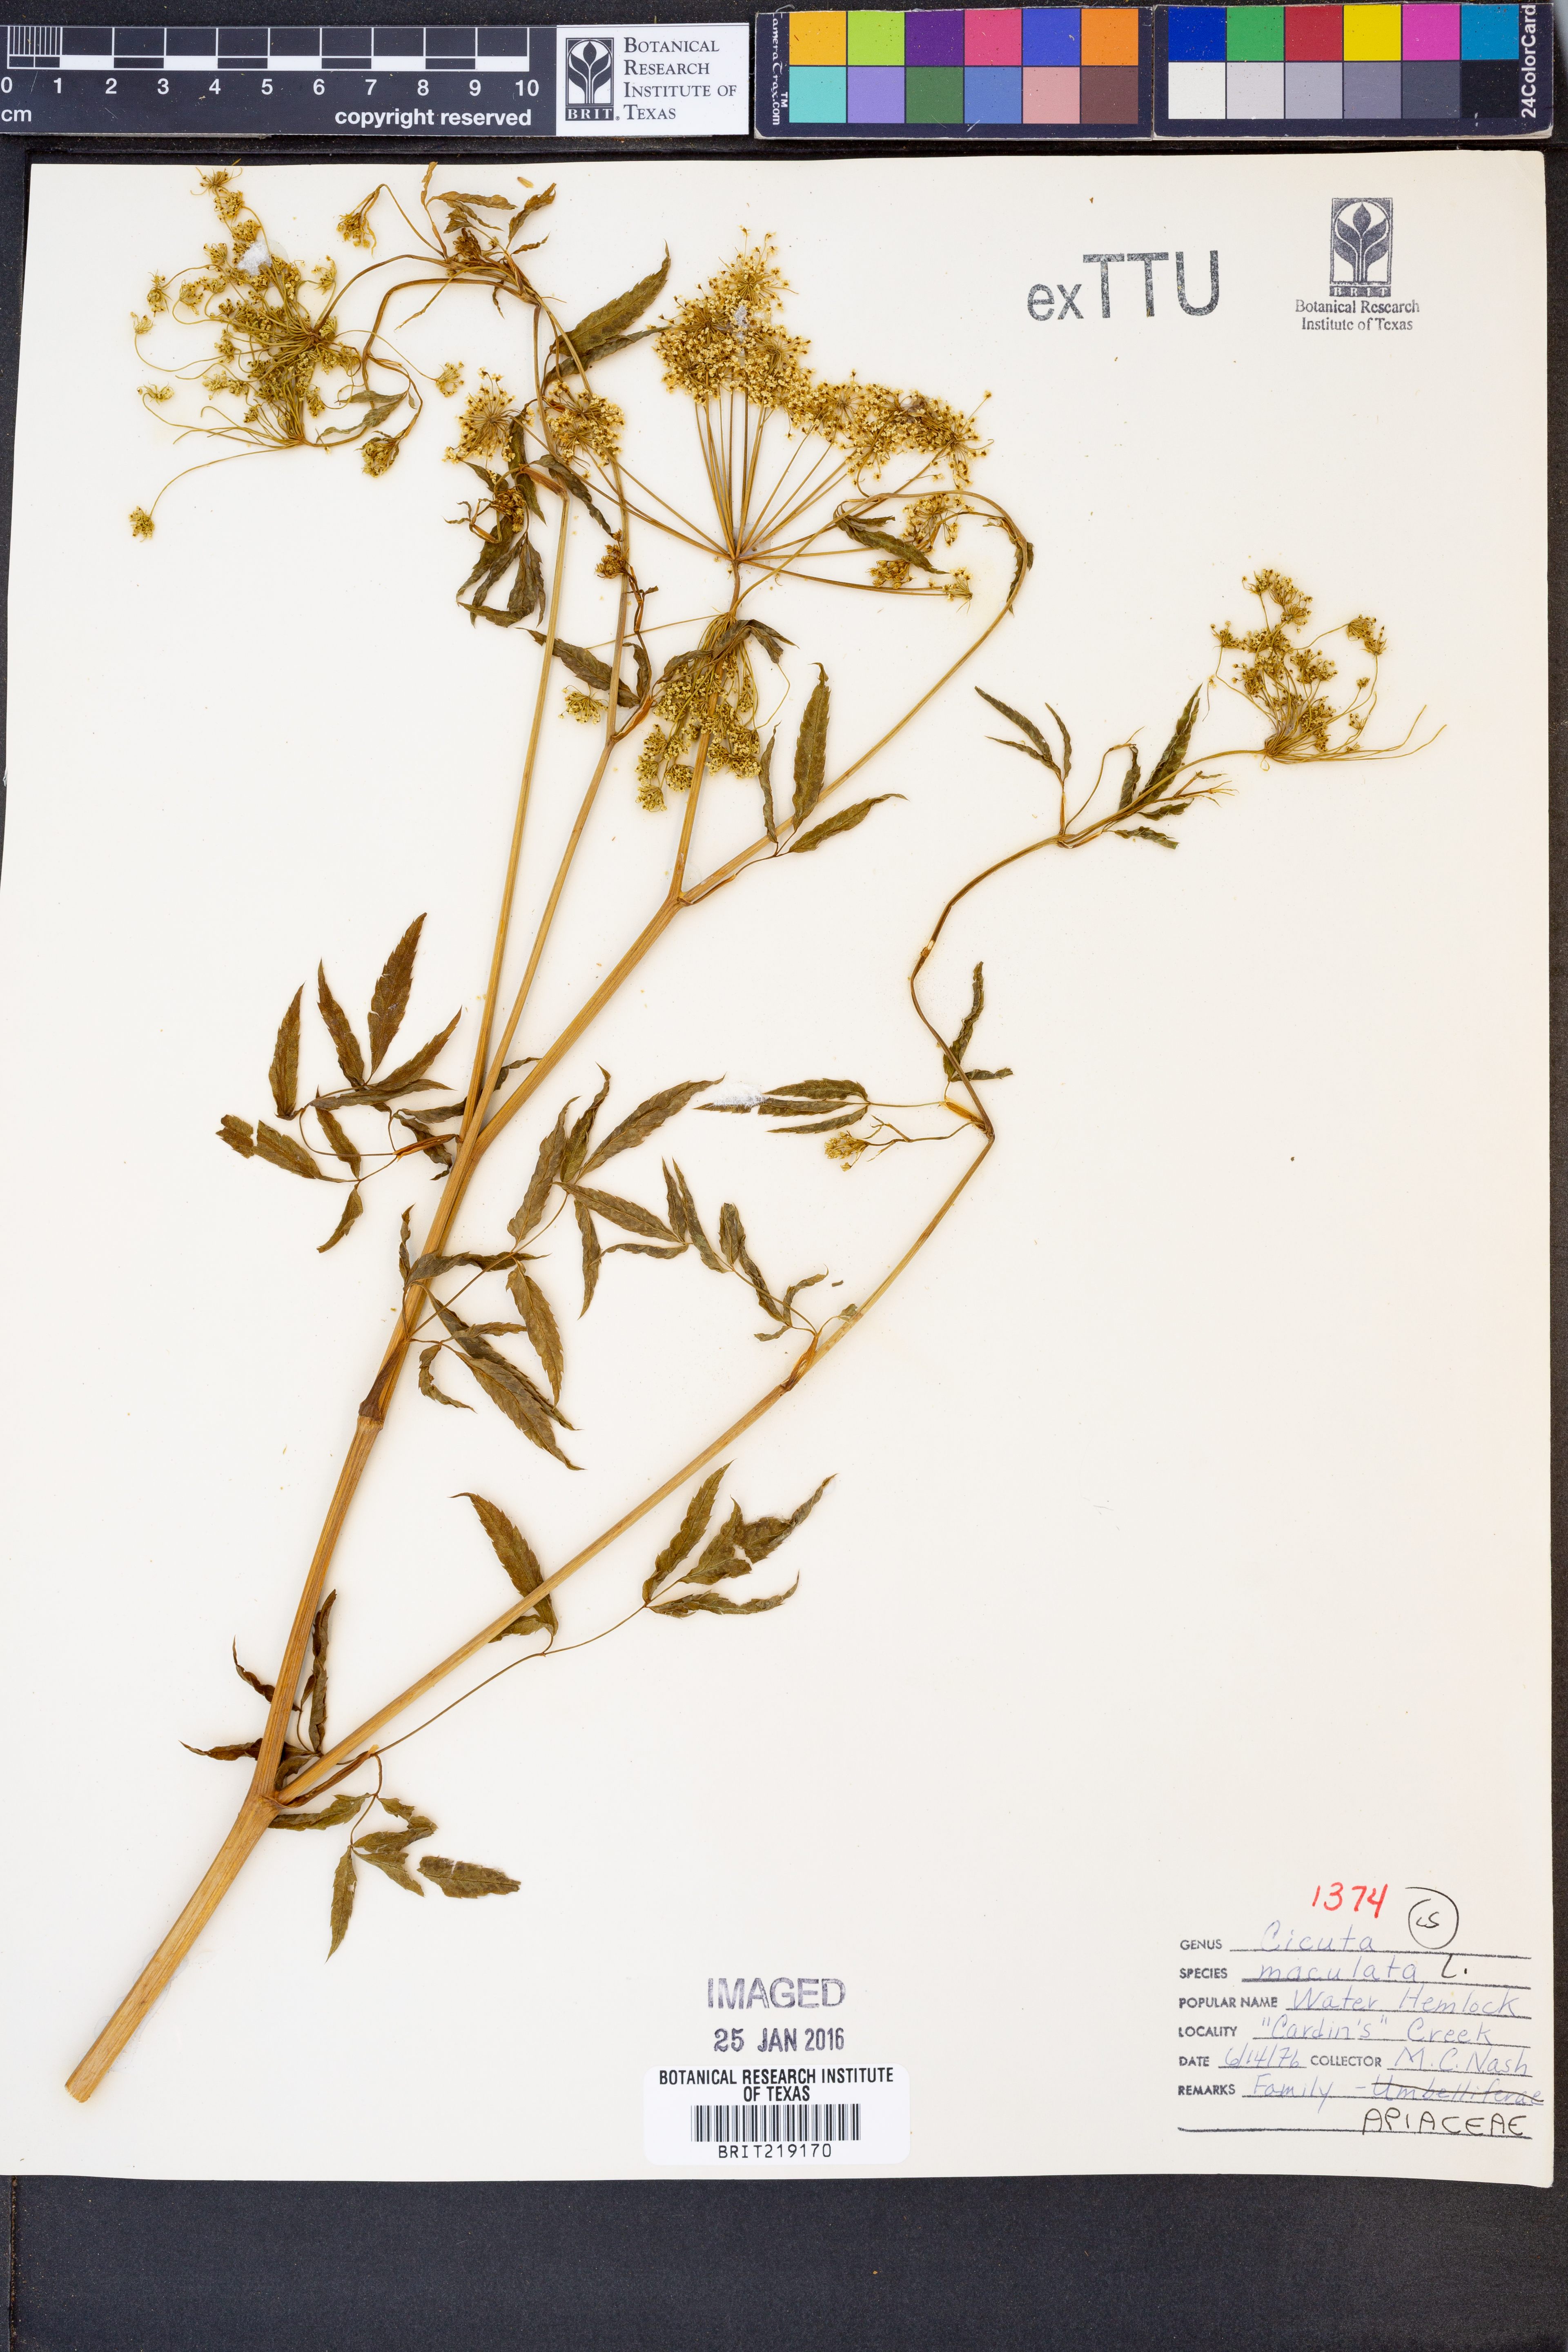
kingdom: Plantae
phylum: Tracheophyta
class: Magnoliopsida
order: Apiales
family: Apiaceae
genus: Cicuta
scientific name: Cicuta maculata
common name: Spotted cowbane
